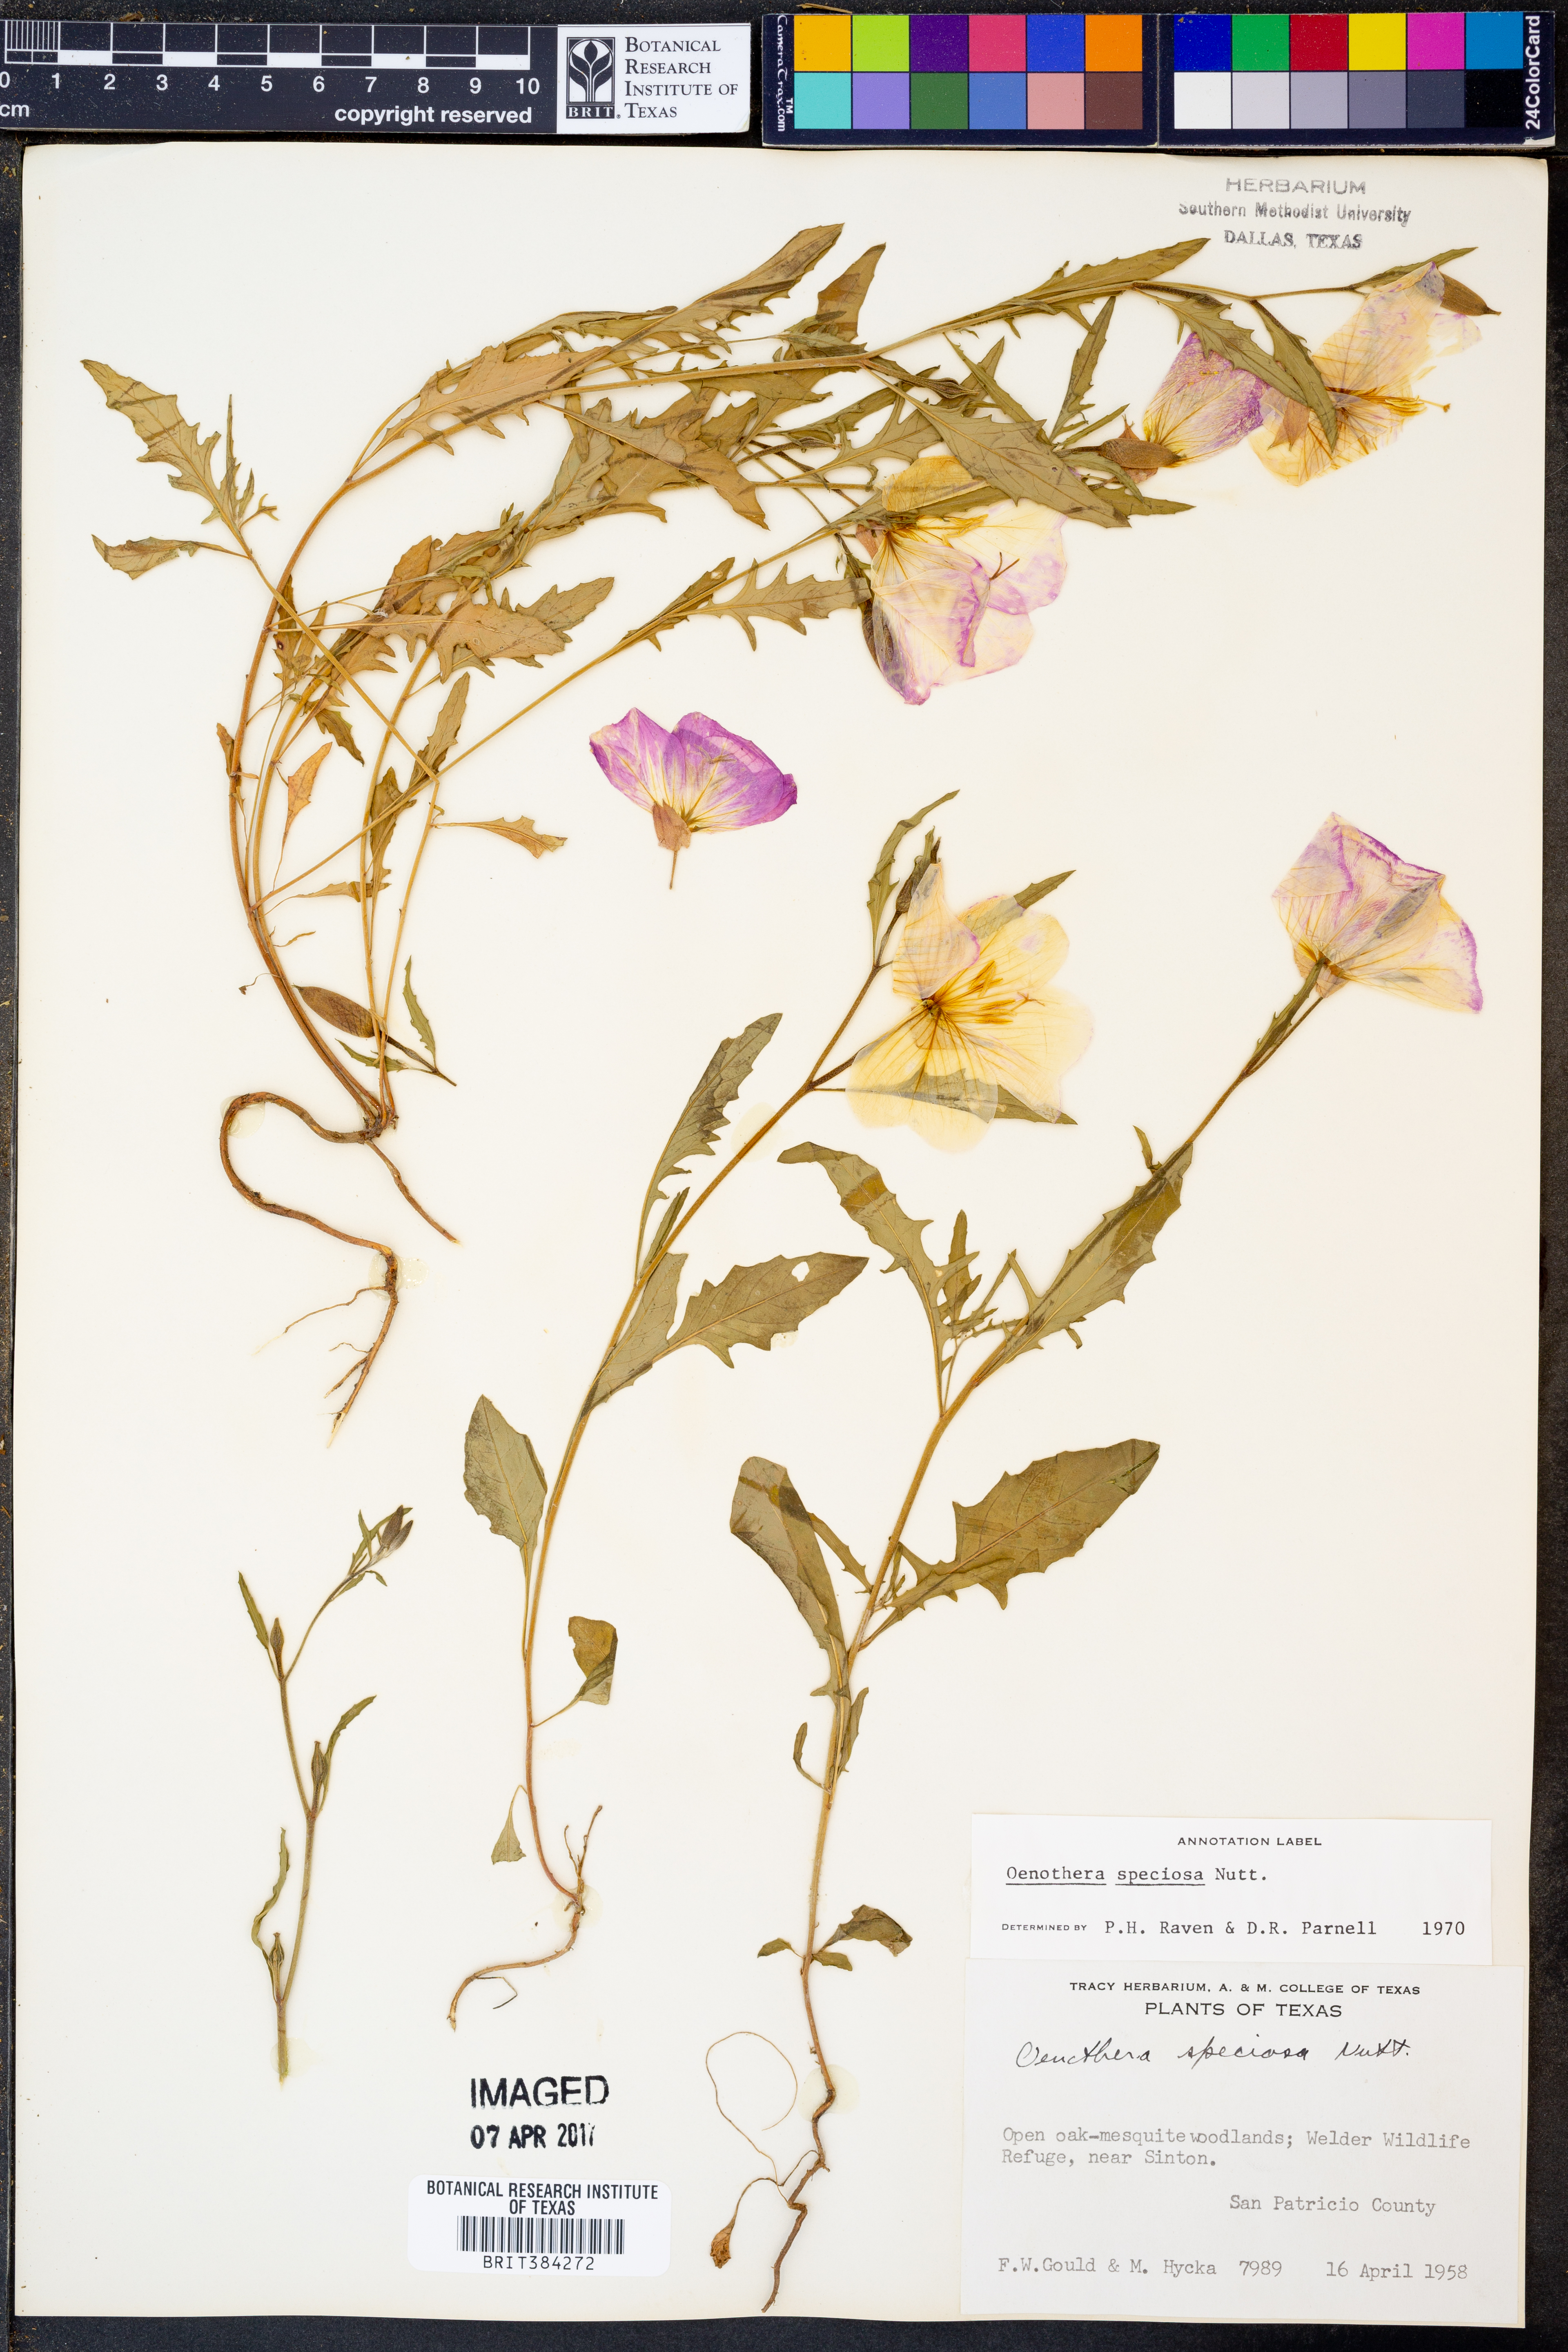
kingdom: Plantae
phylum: Tracheophyta
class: Magnoliopsida
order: Myrtales
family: Onagraceae
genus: Oenothera
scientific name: Oenothera speciosa
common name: White evening-primrose
